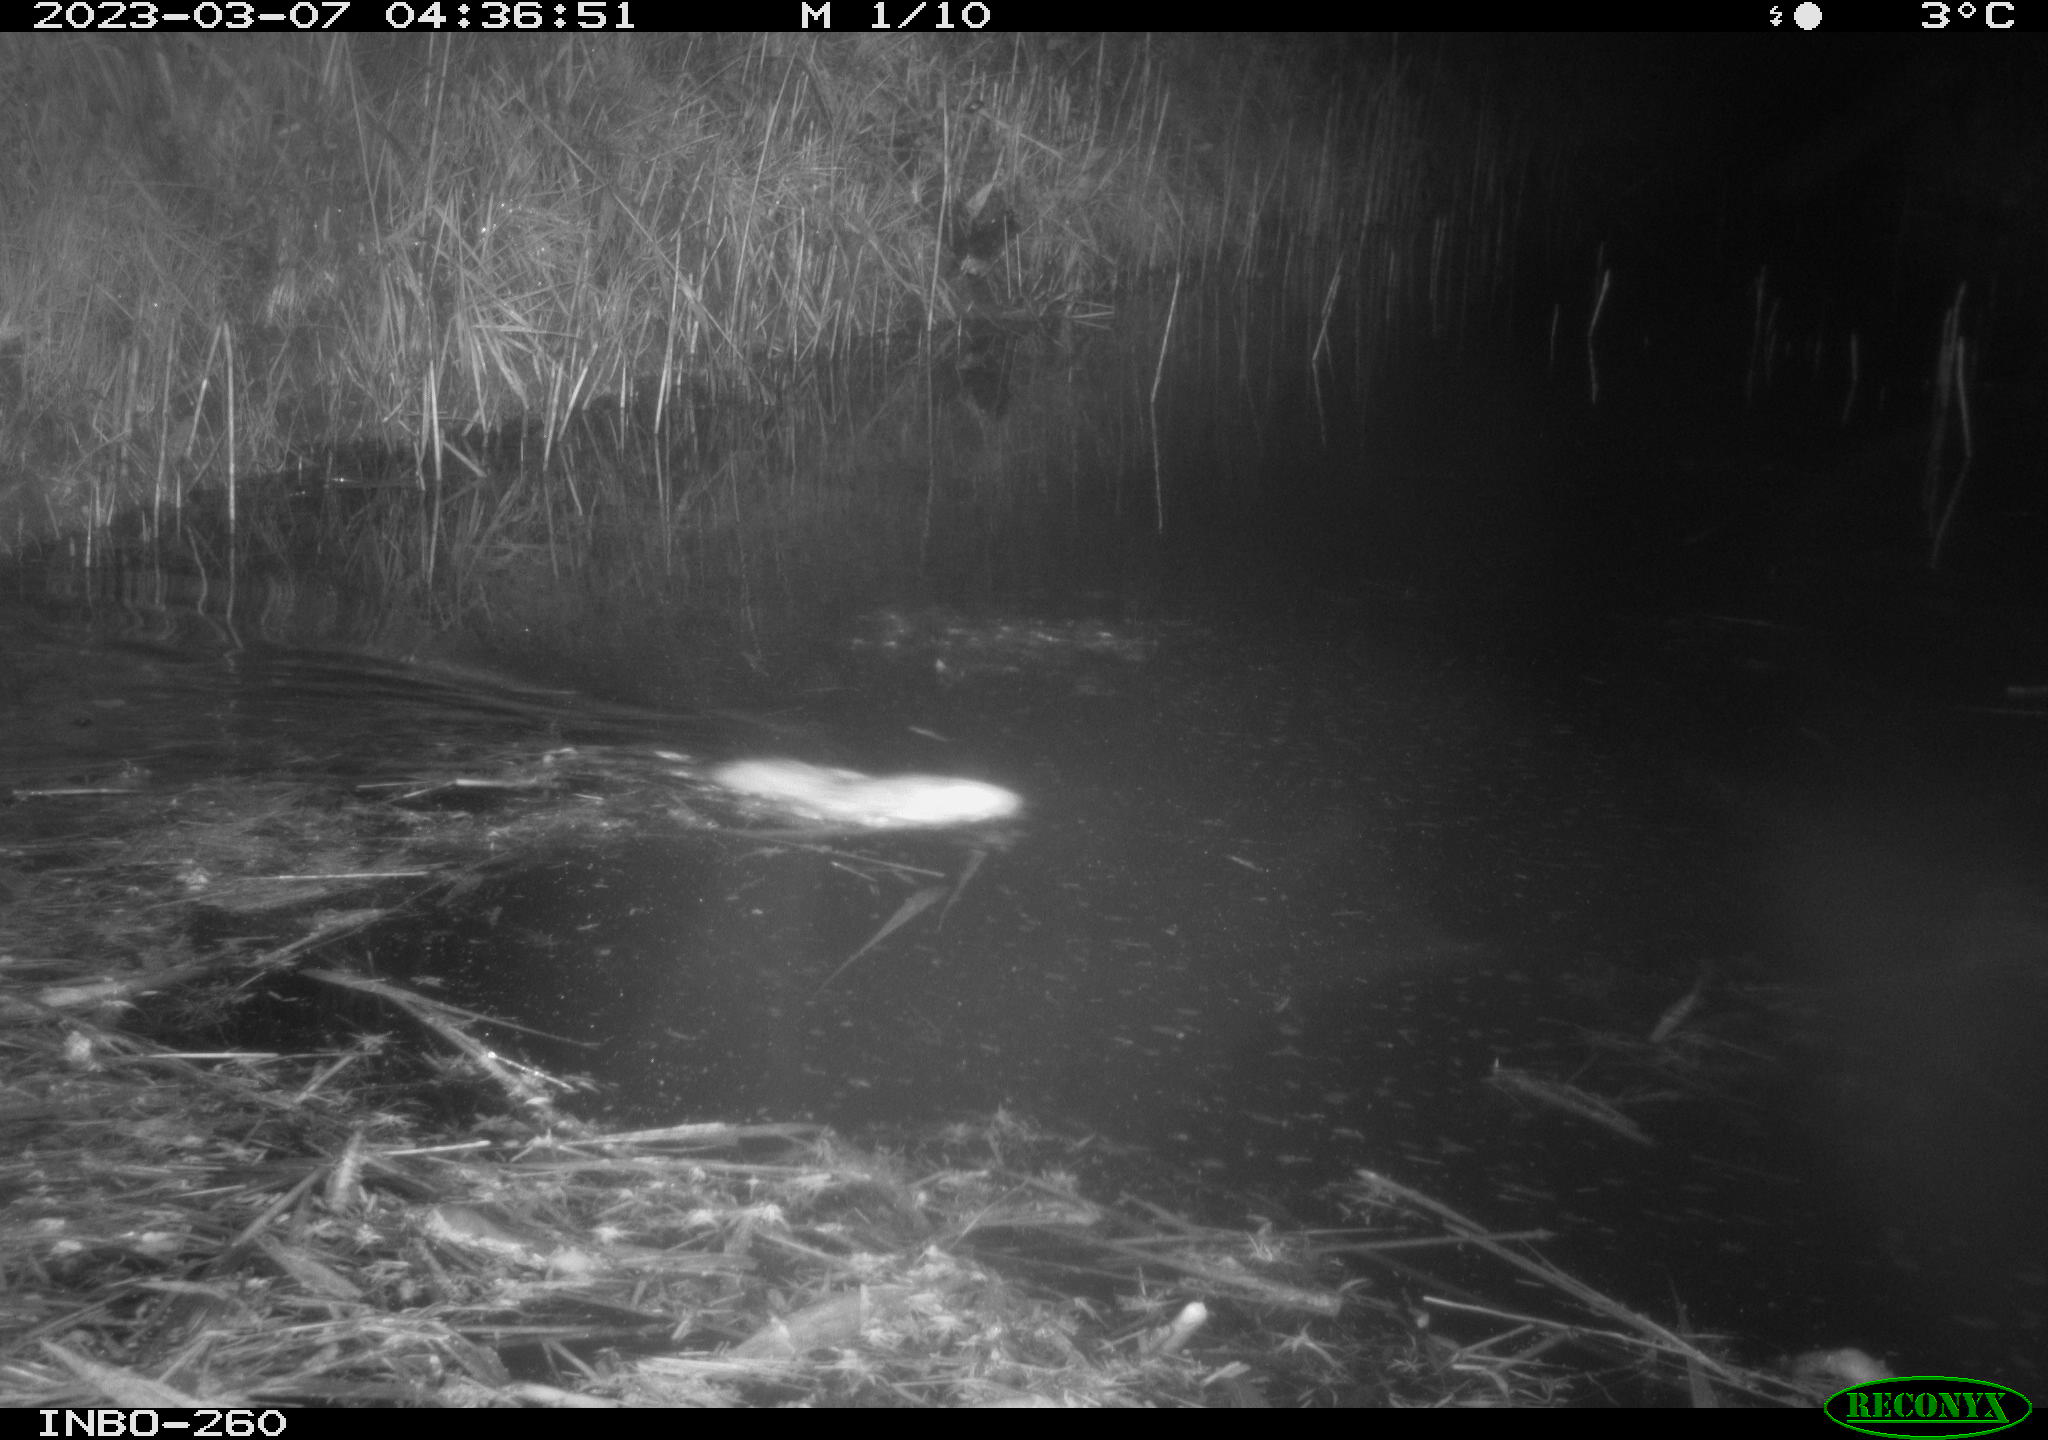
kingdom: Animalia
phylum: Chordata
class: Mammalia
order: Rodentia
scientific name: Rodentia
